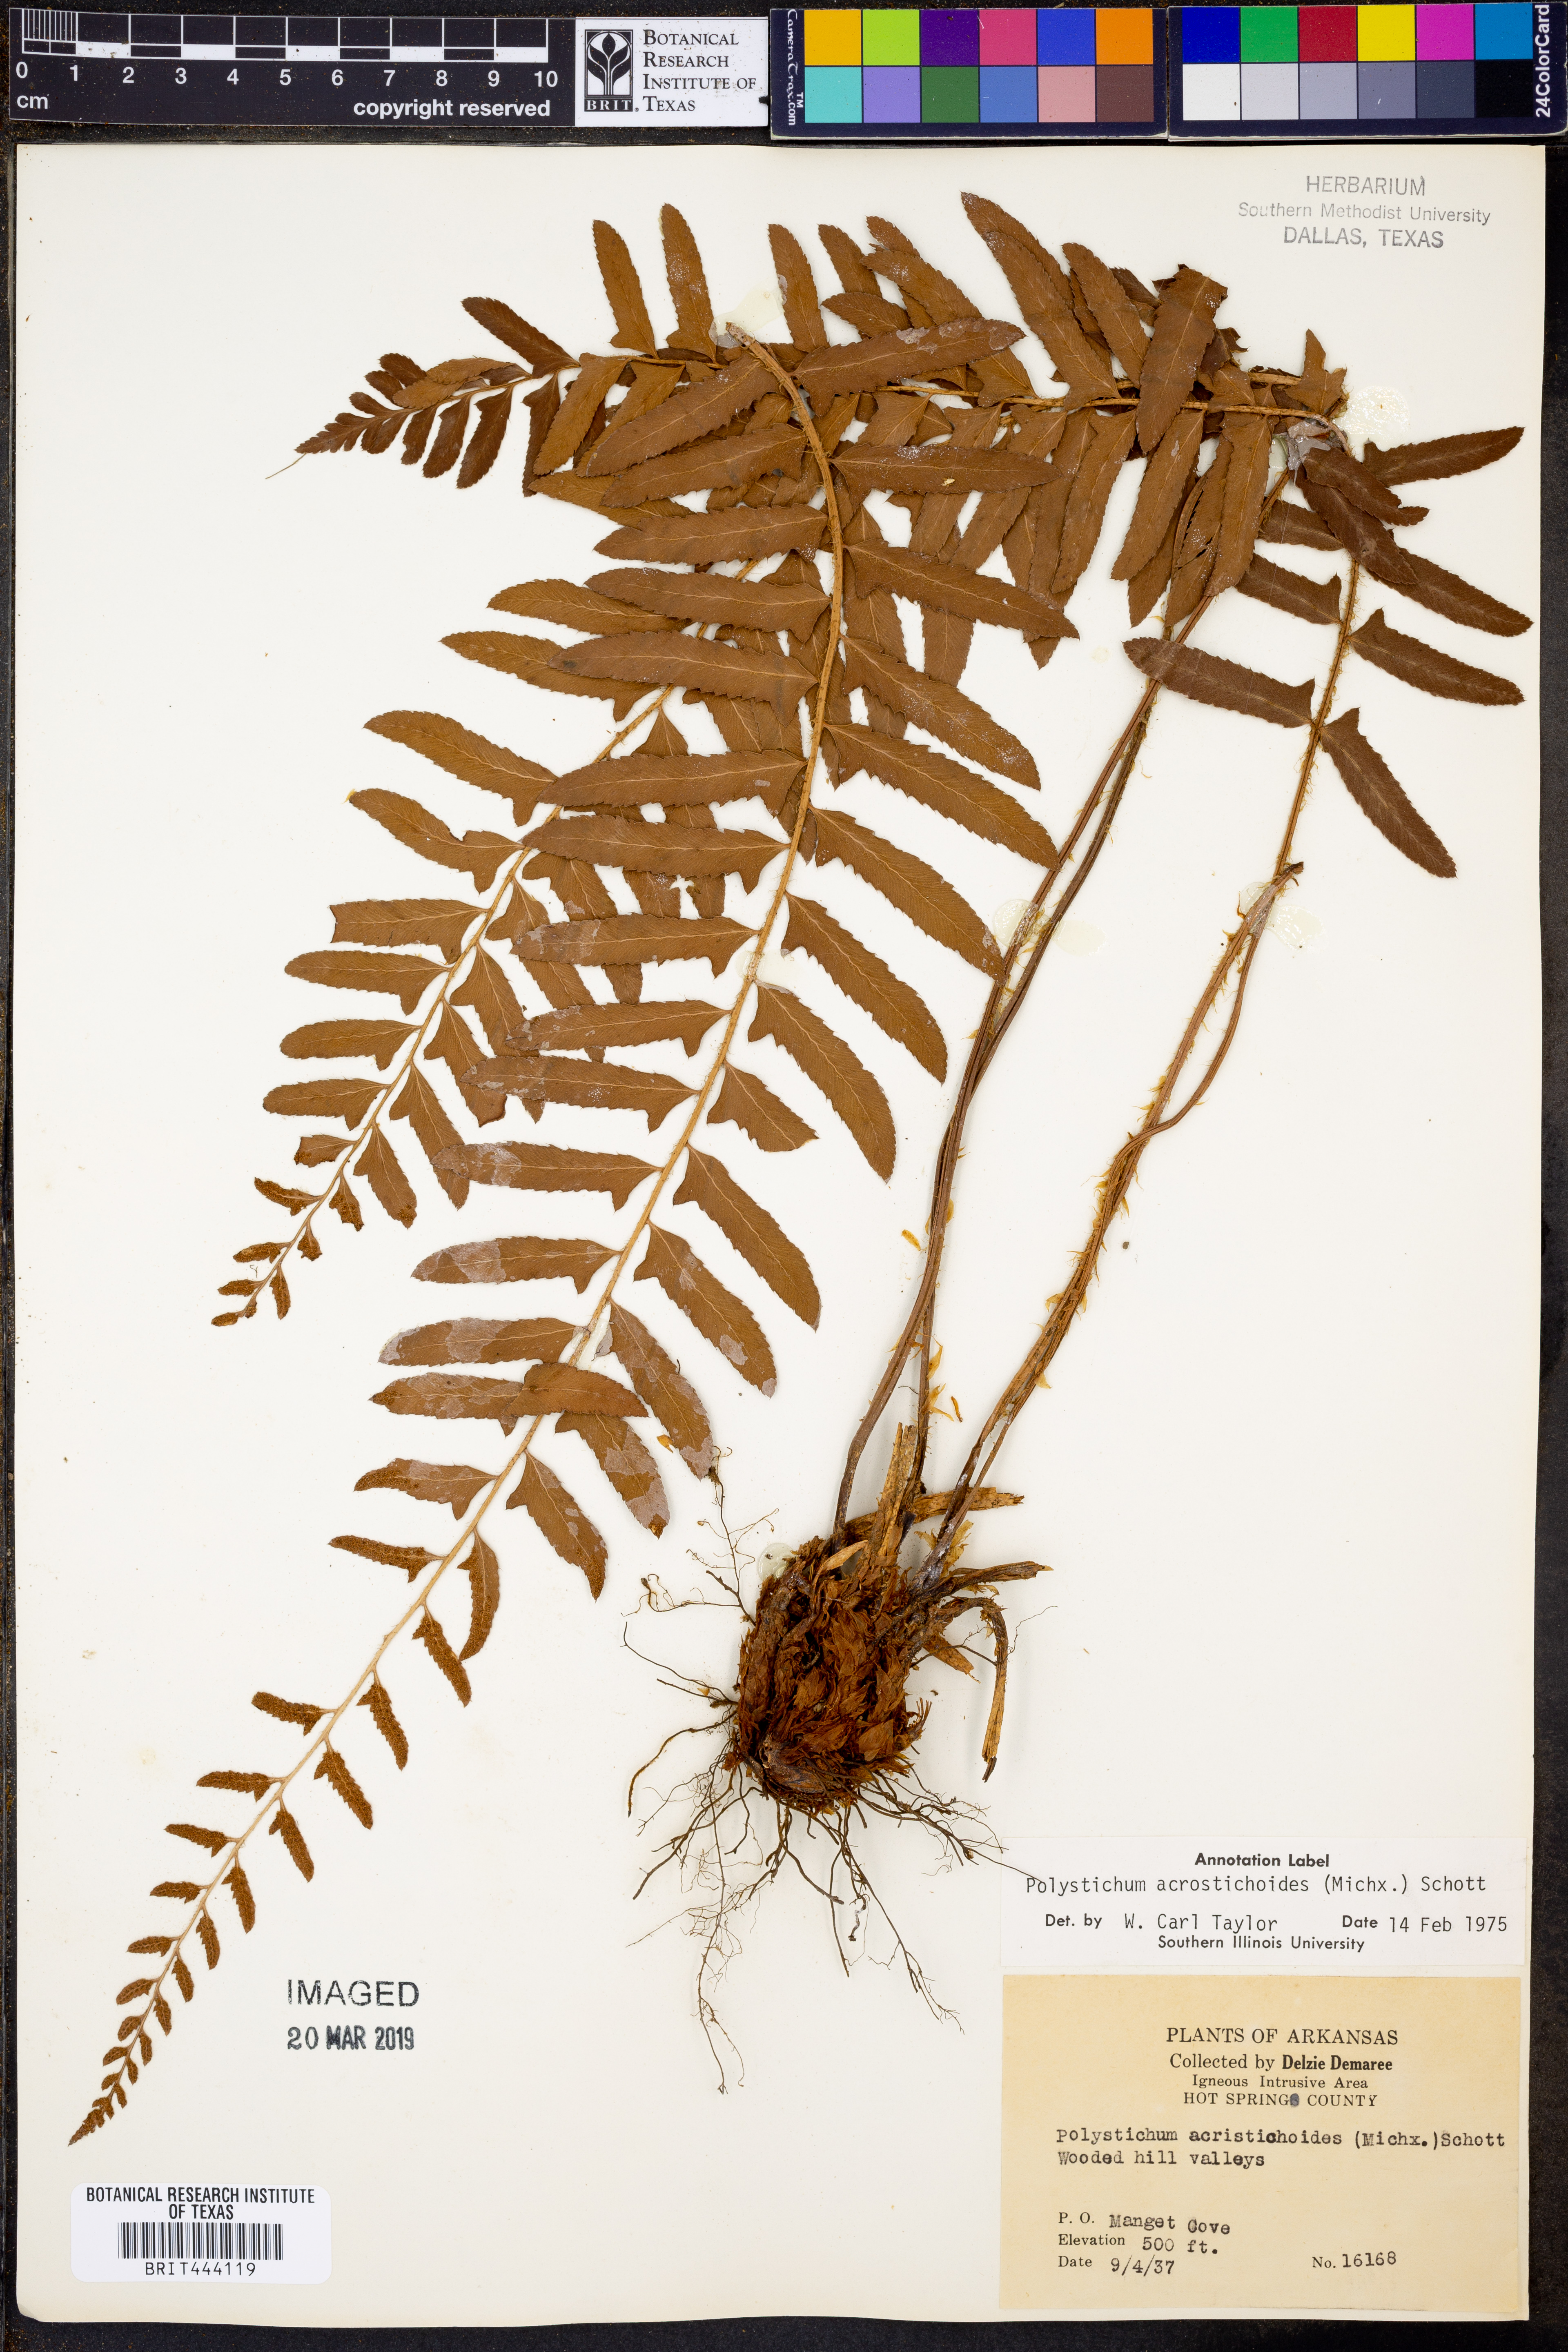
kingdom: Plantae
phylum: Tracheophyta
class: Polypodiopsida
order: Polypodiales
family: Dryopteridaceae
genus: Polystichum
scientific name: Polystichum acrostichoides
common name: Christmas fern
